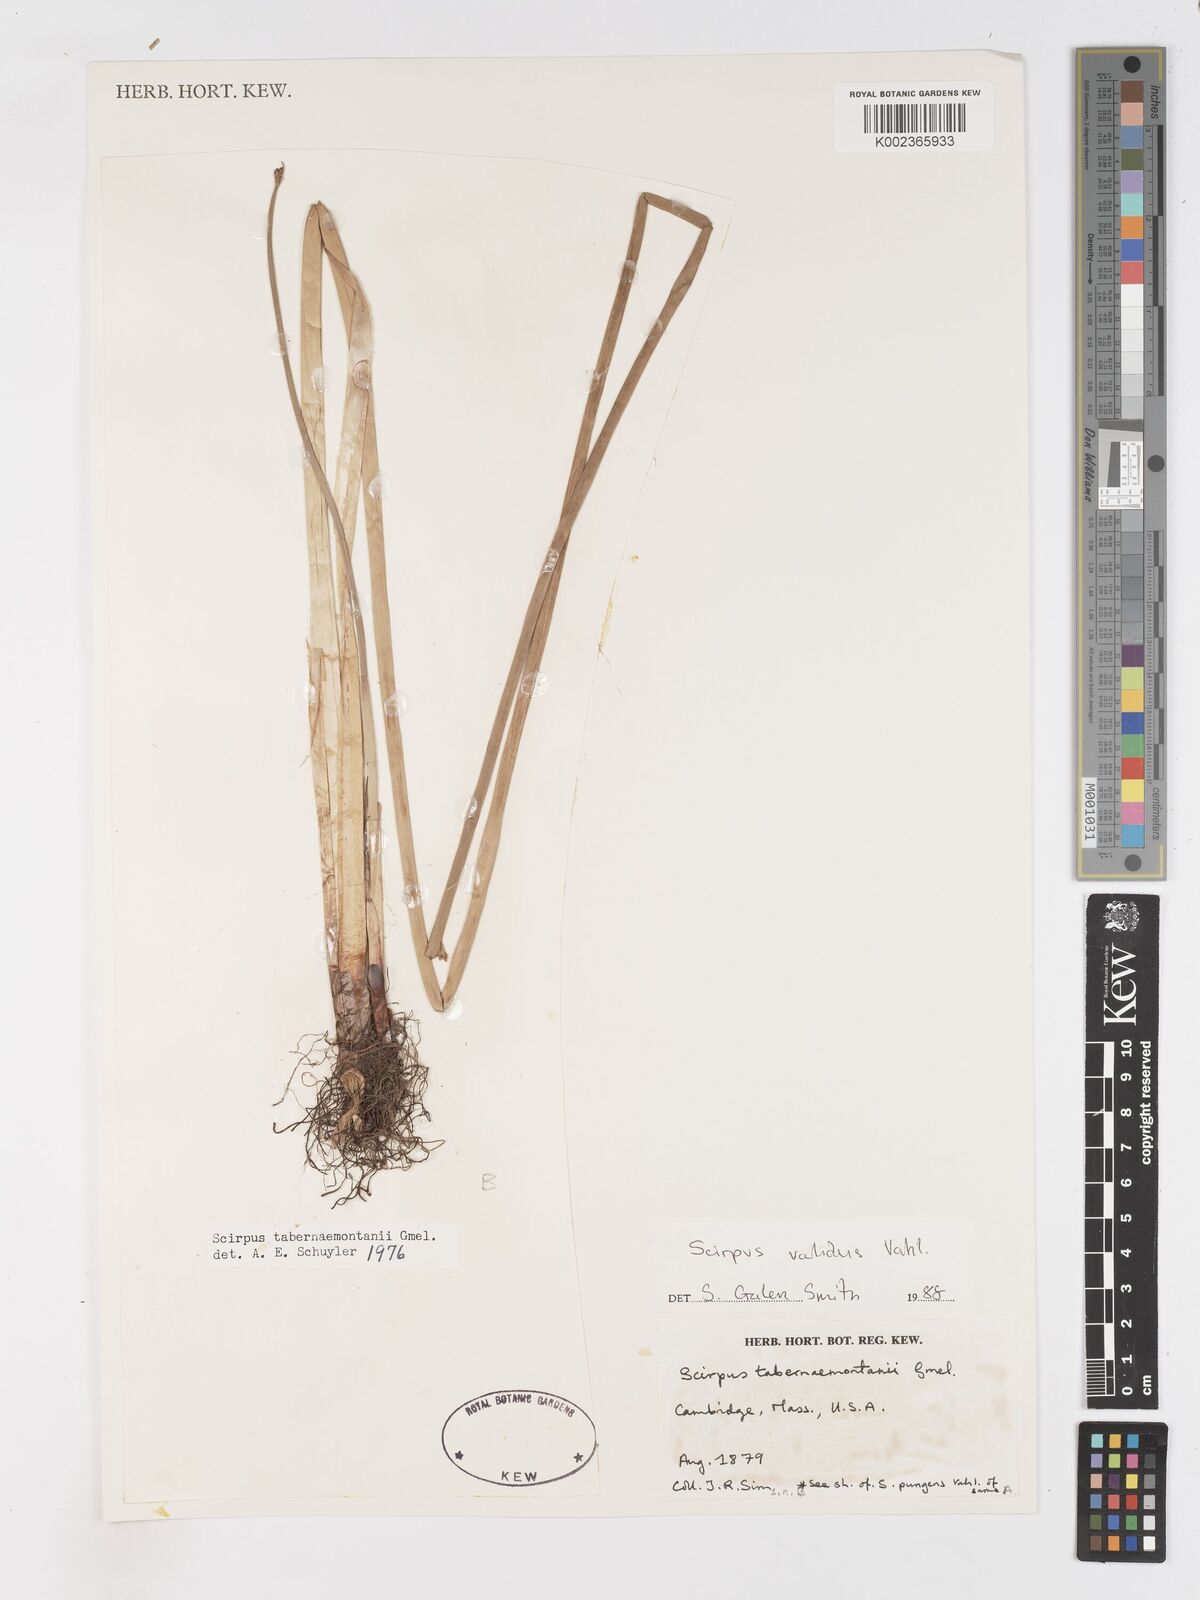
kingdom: Plantae
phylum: Tracheophyta
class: Liliopsida
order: Poales
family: Cyperaceae
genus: Schoenoplectus
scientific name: Schoenoplectus tabernaemontani
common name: Grey club-rush
